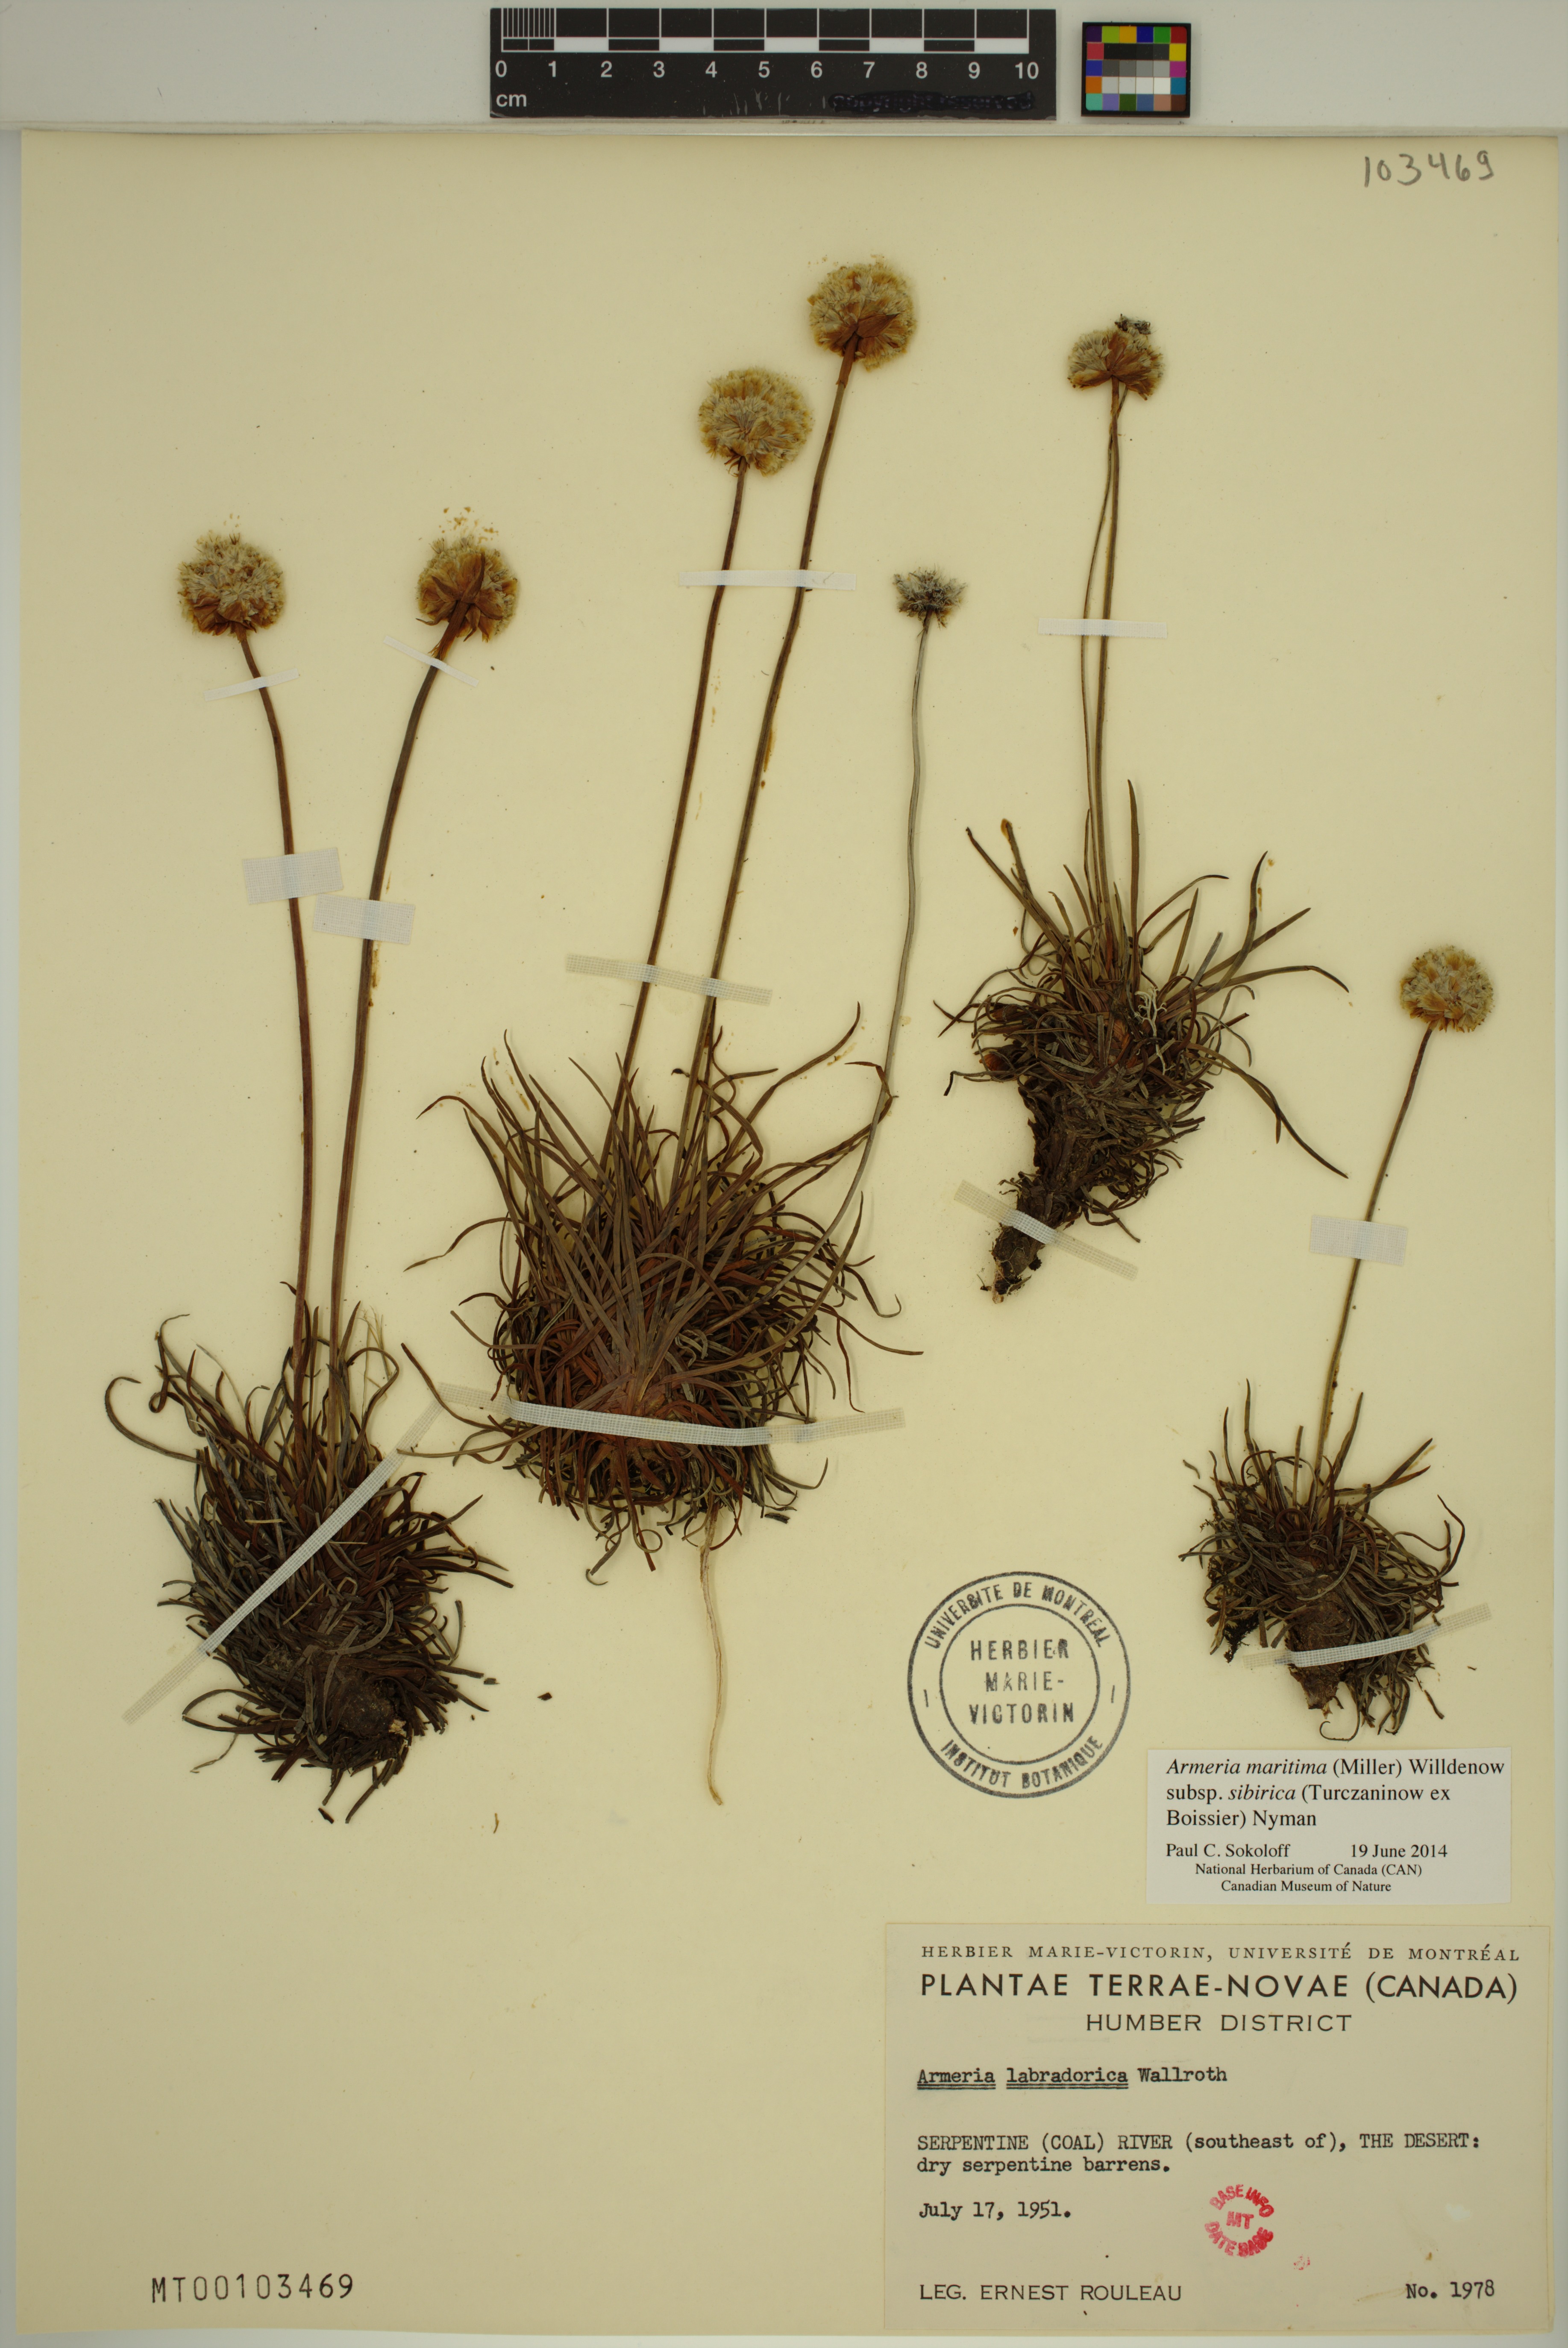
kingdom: Plantae
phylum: Tracheophyta
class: Magnoliopsida
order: Caryophyllales
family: Plumbaginaceae
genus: Armeria
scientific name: Armeria maritima
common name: Thrift
